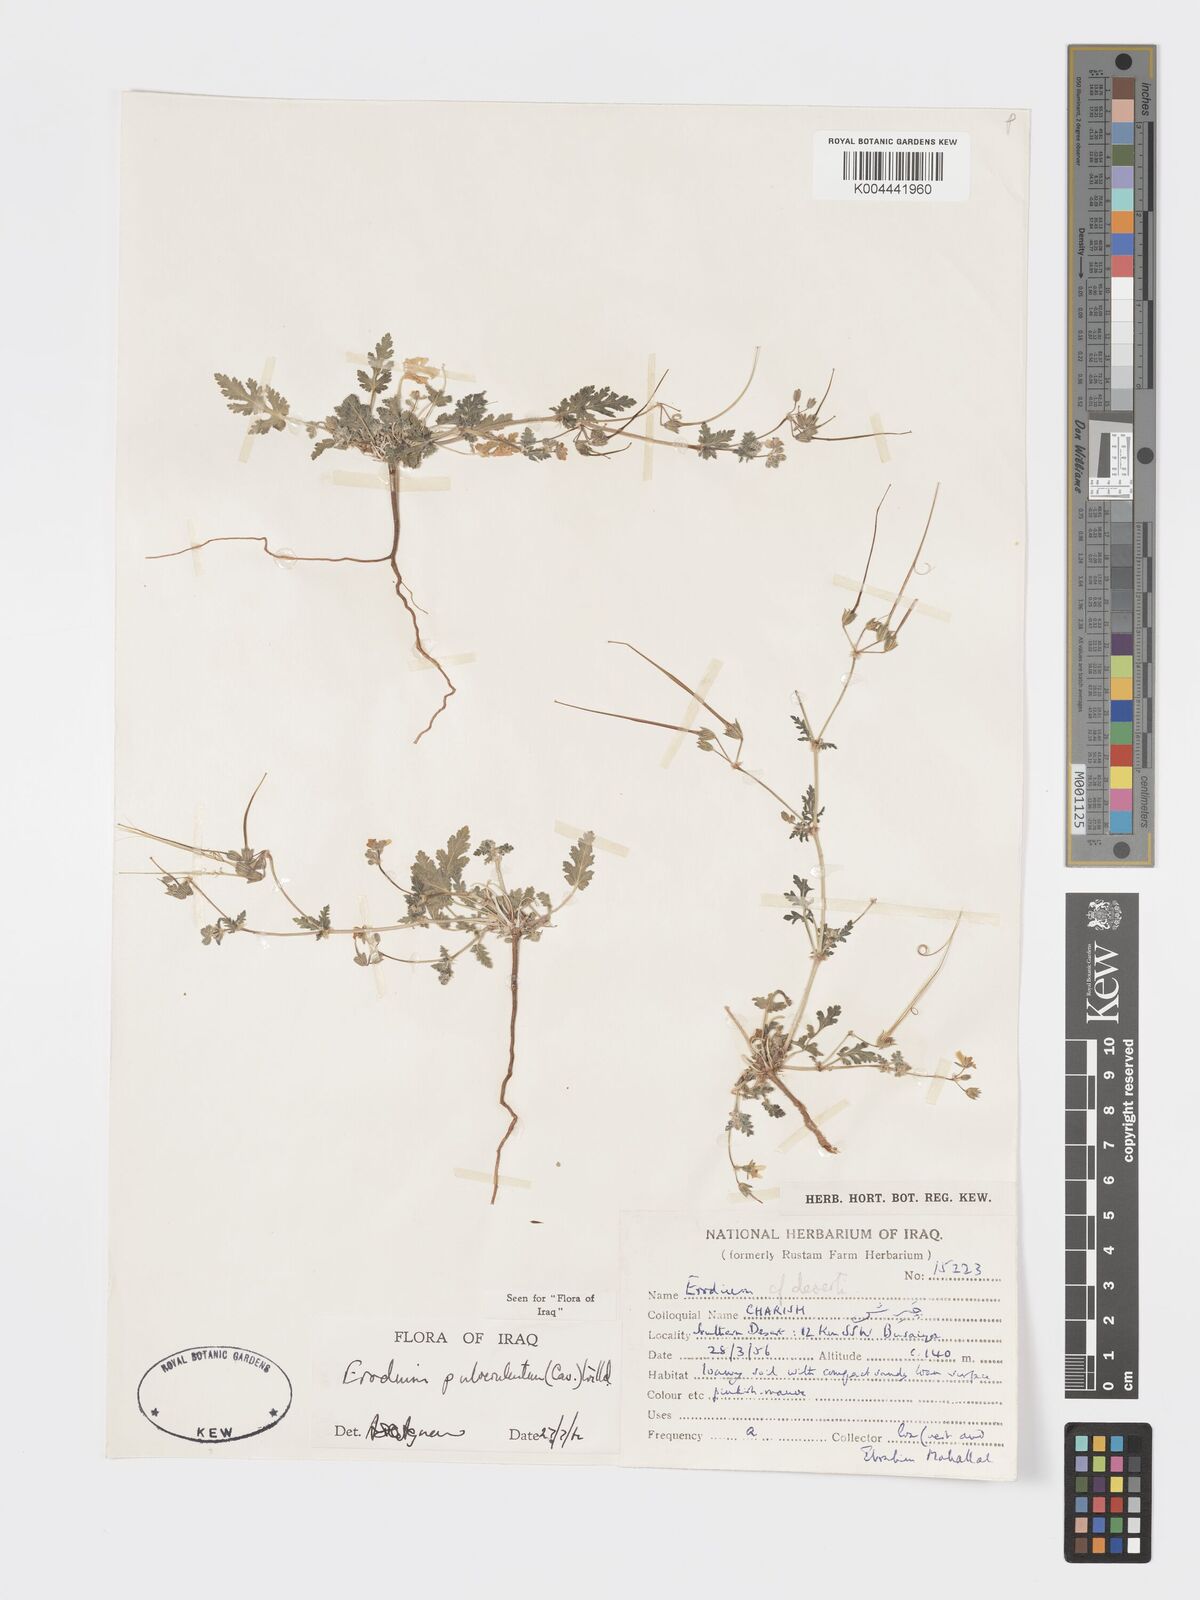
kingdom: Plantae
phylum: Tracheophyta
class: Magnoliopsida
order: Geraniales
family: Geraniaceae
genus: Erodium
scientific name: Erodium laciniatum
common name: Cutleaf stork's bill
